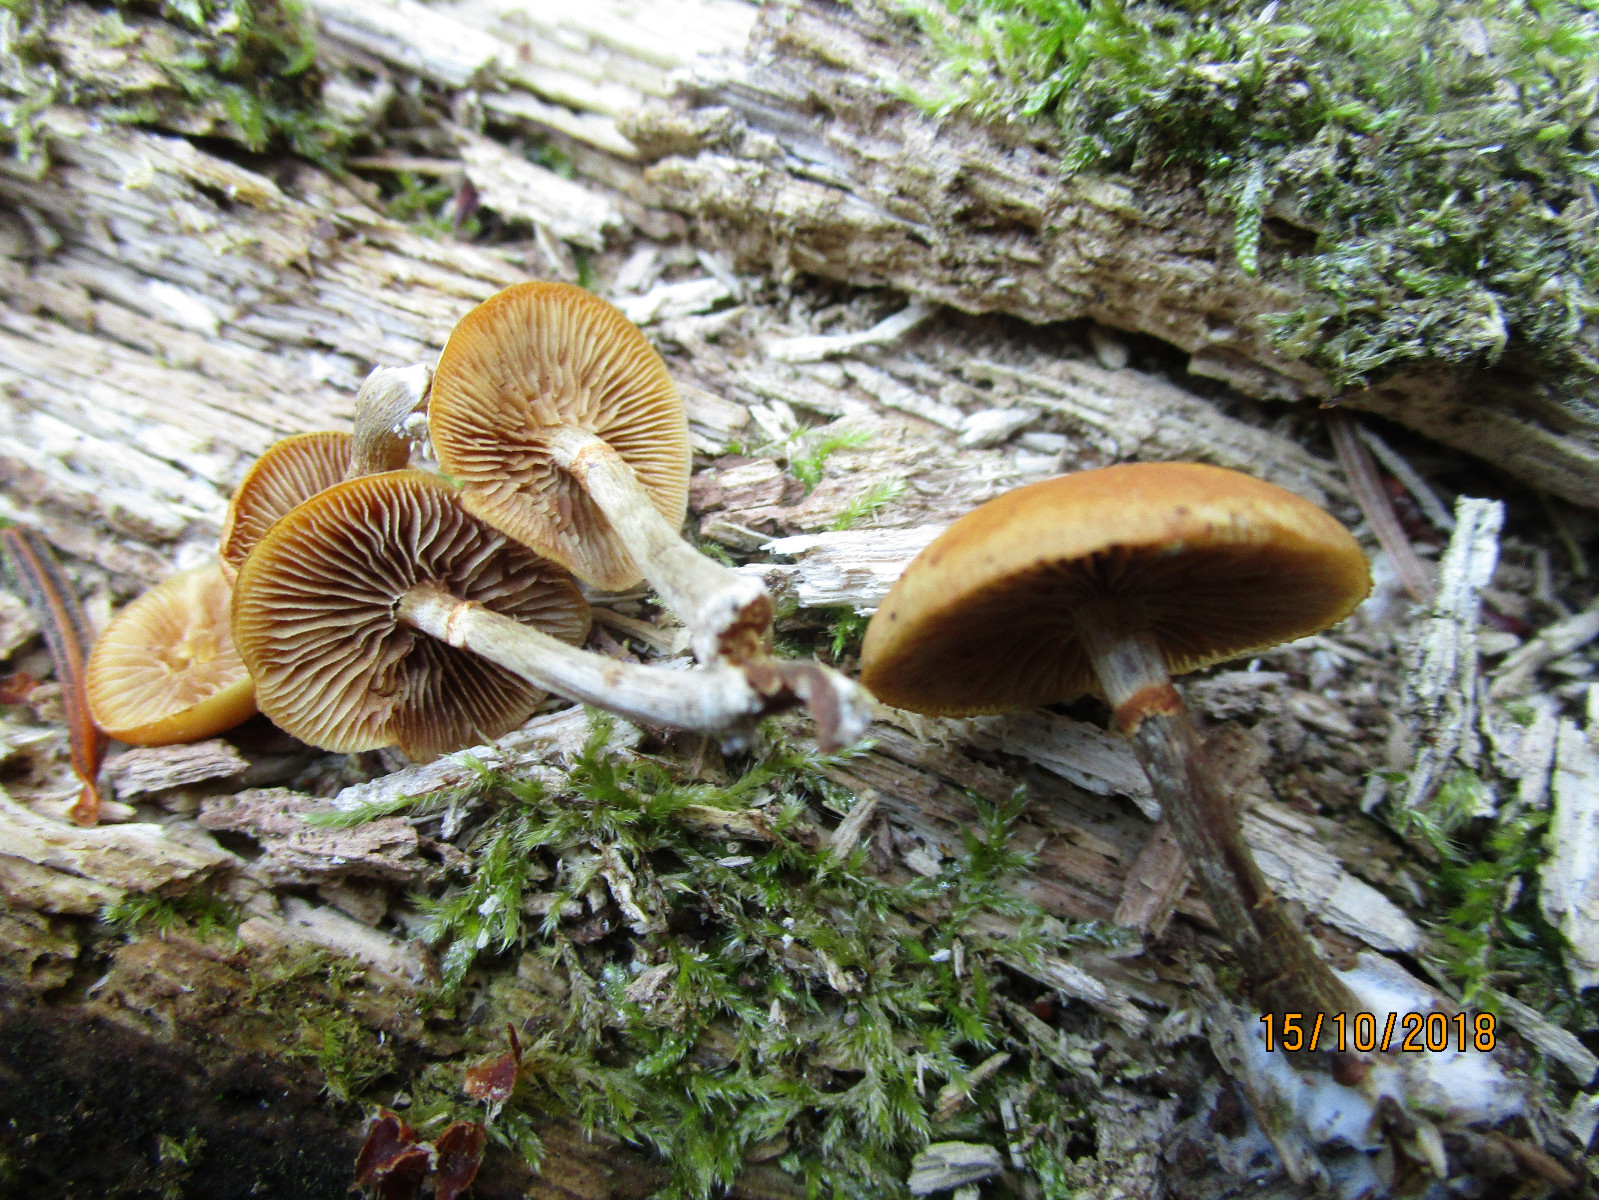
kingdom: Fungi
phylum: Basidiomycota
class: Agaricomycetes
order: Agaricales
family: Hymenogastraceae
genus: Galerina
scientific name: Galerina marginata
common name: randbæltet hjelmhat
